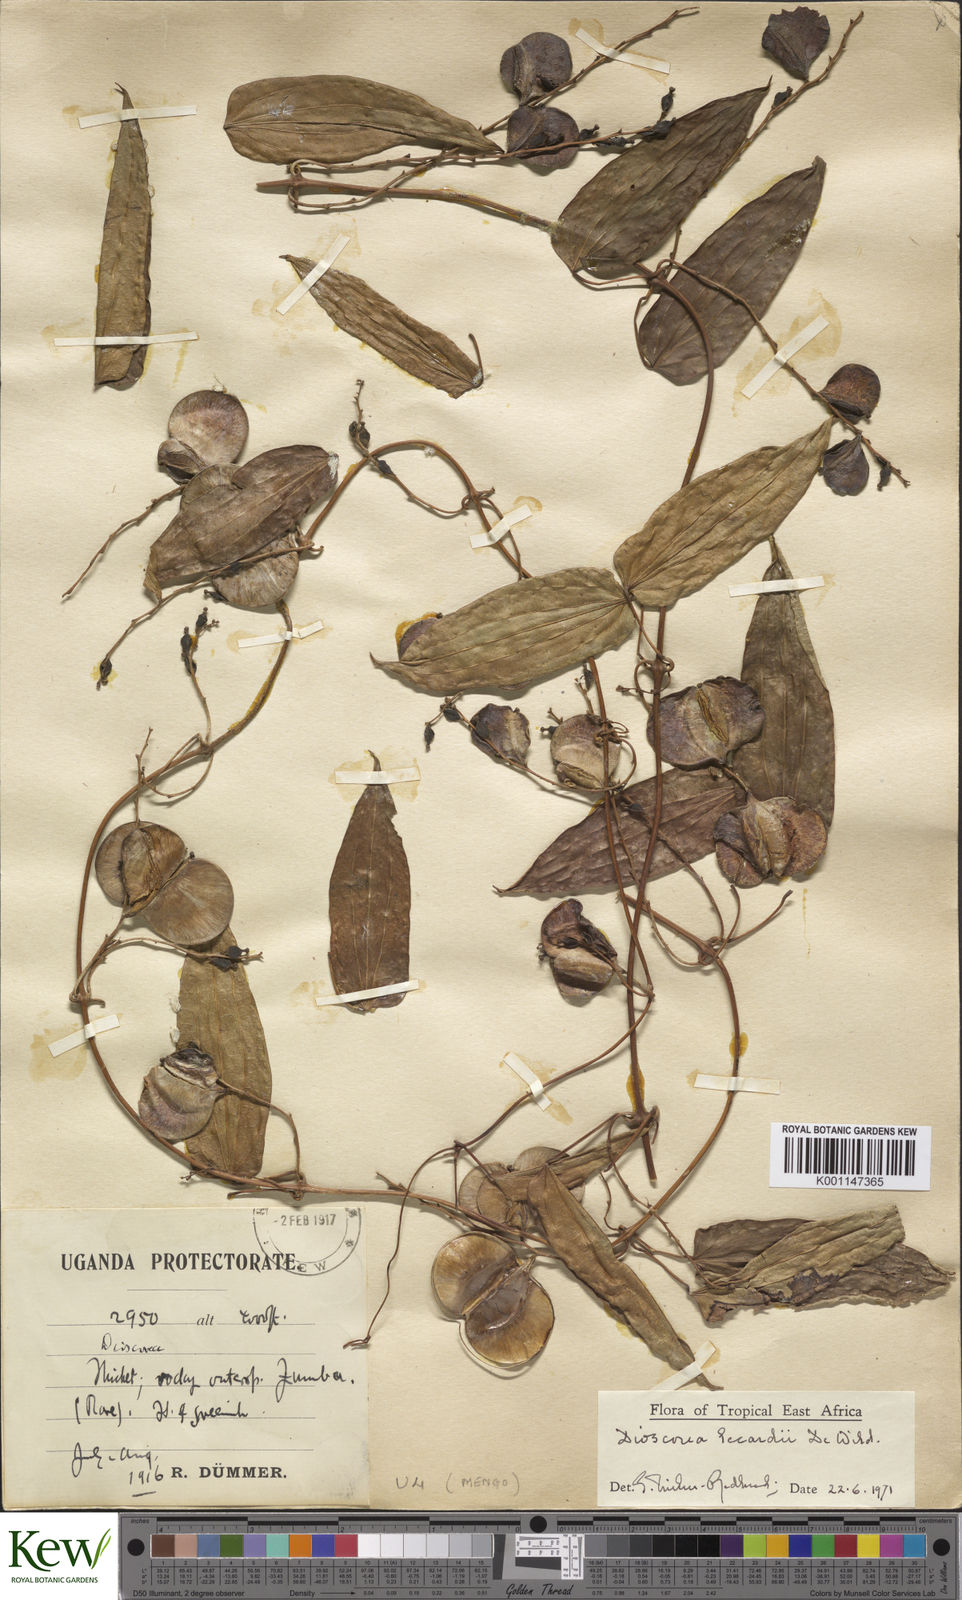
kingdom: Plantae
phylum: Tracheophyta
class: Liliopsida
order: Dioscoreales
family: Dioscoreaceae
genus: Dioscorea
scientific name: Dioscorea sagittifolia
